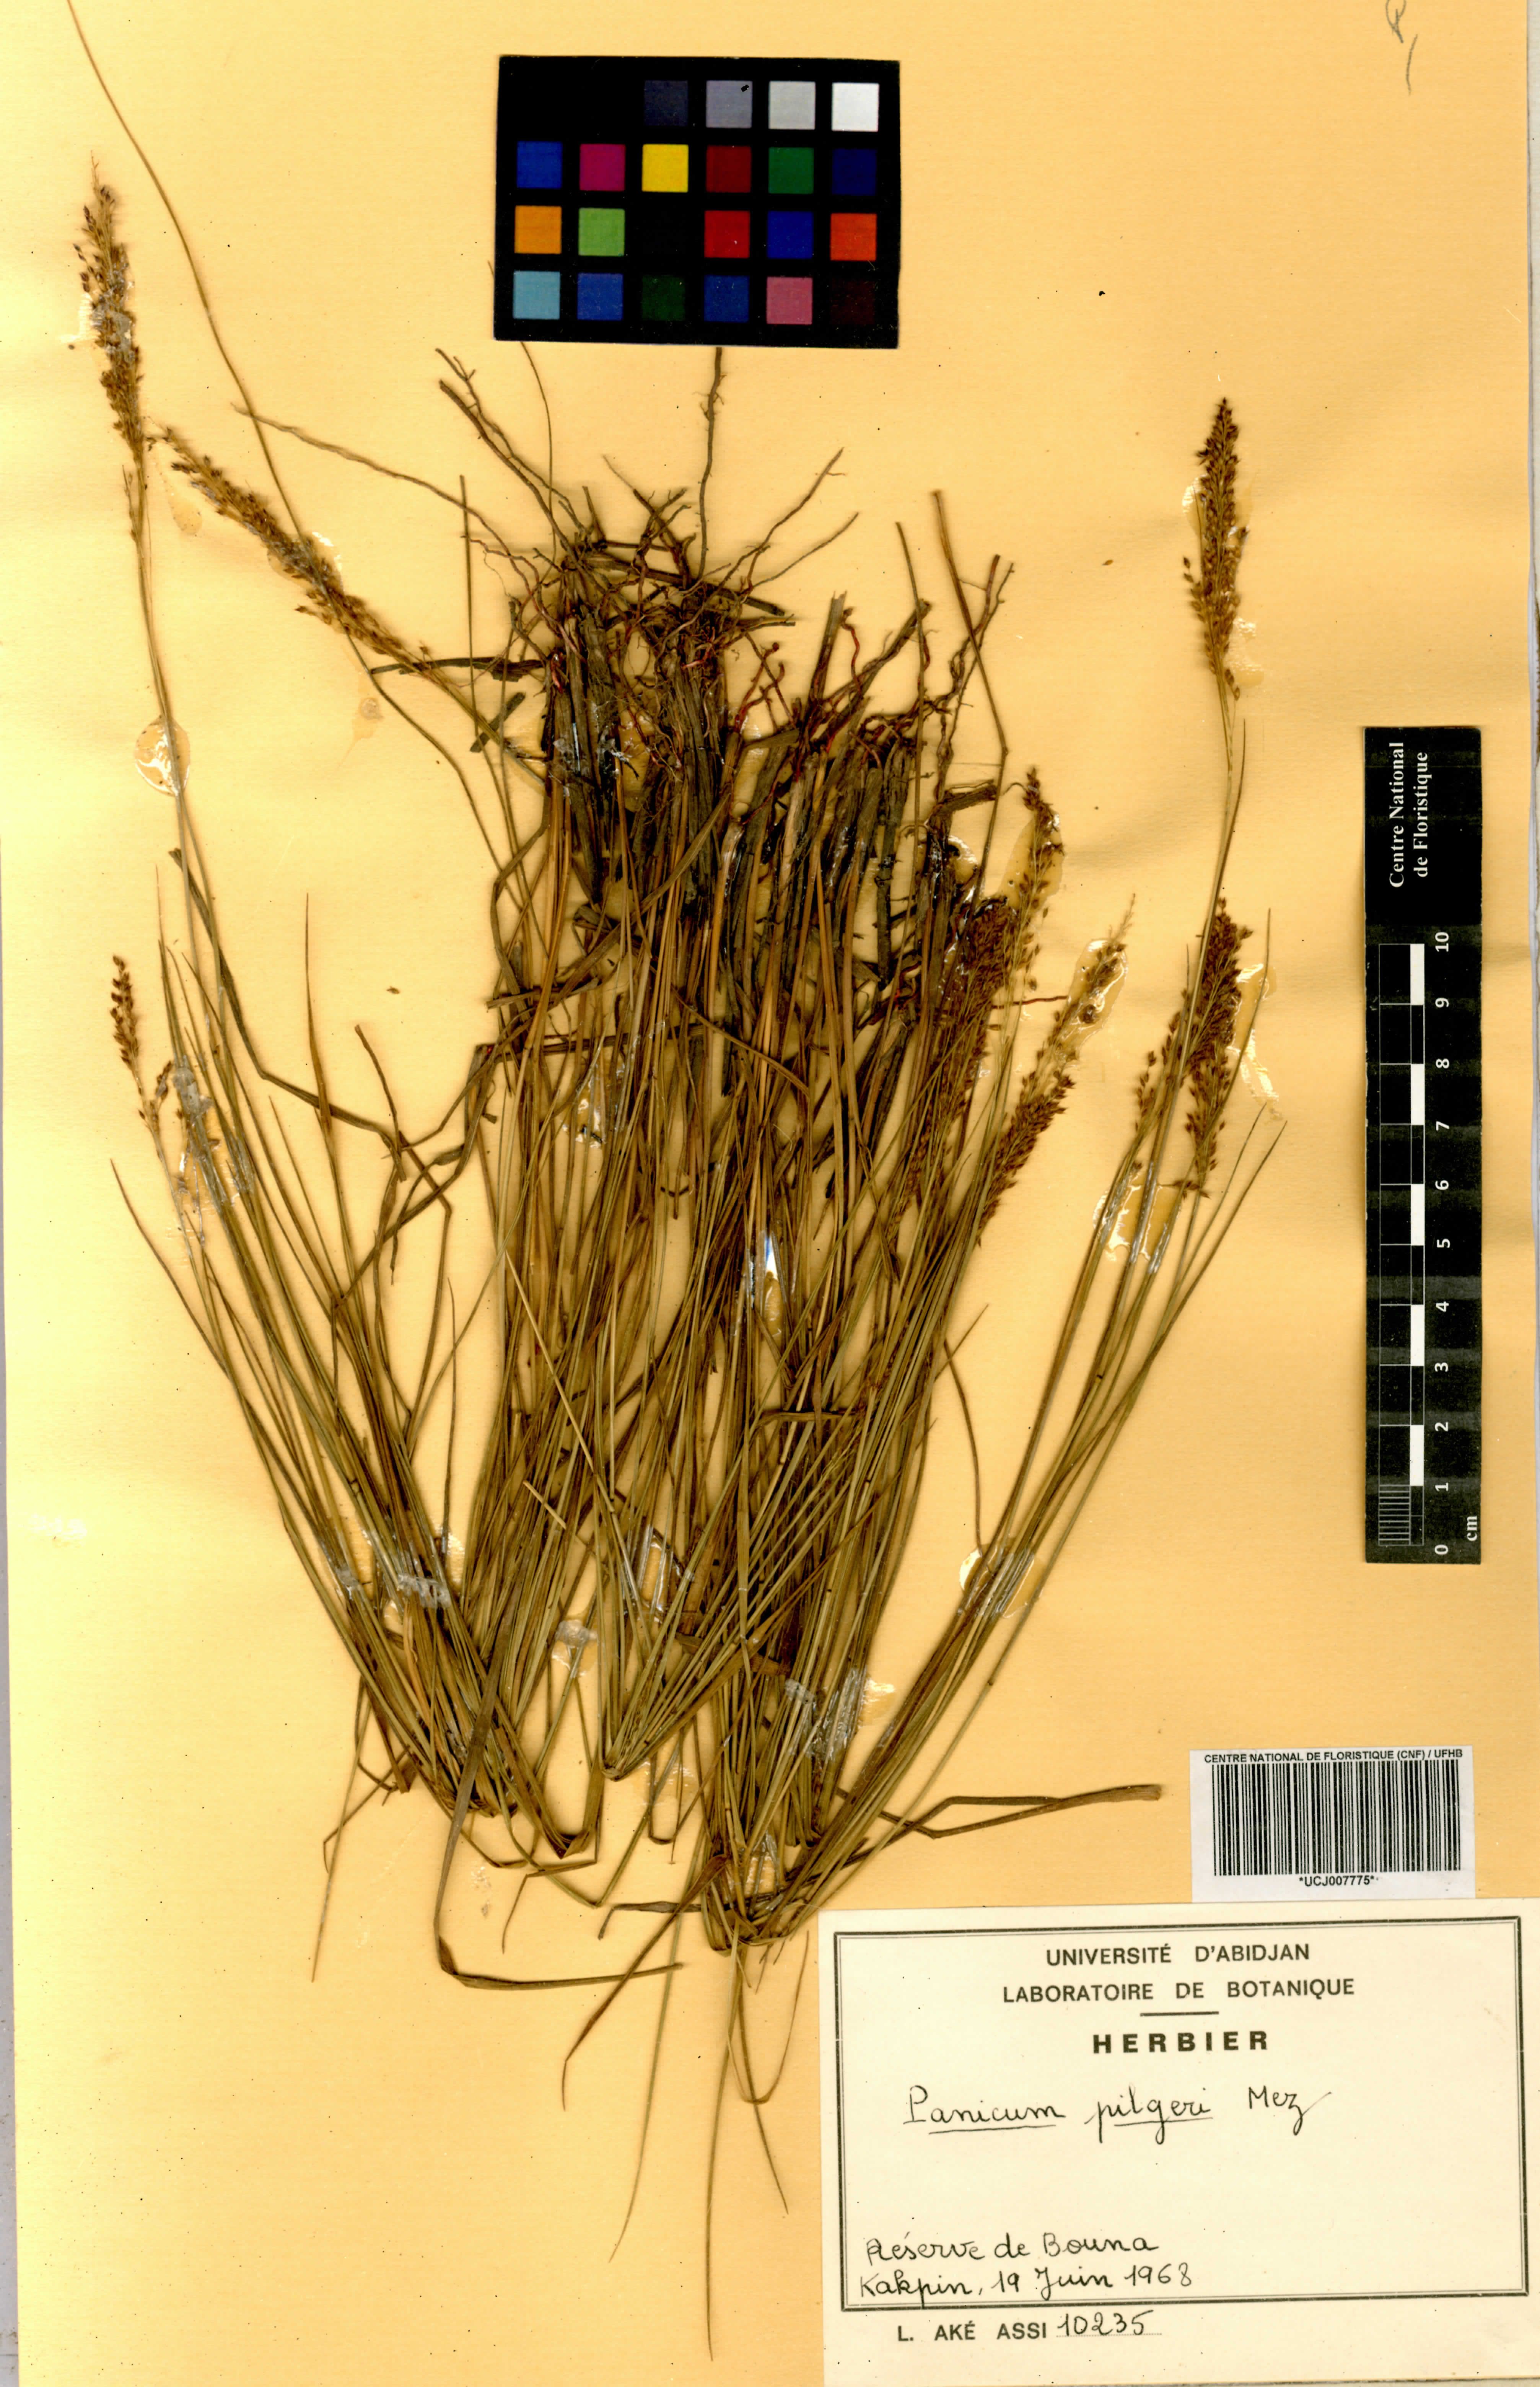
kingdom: Plantae
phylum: Tracheophyta
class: Liliopsida
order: Poales
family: Poaceae
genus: Panicum
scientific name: Panicum pilgeri
